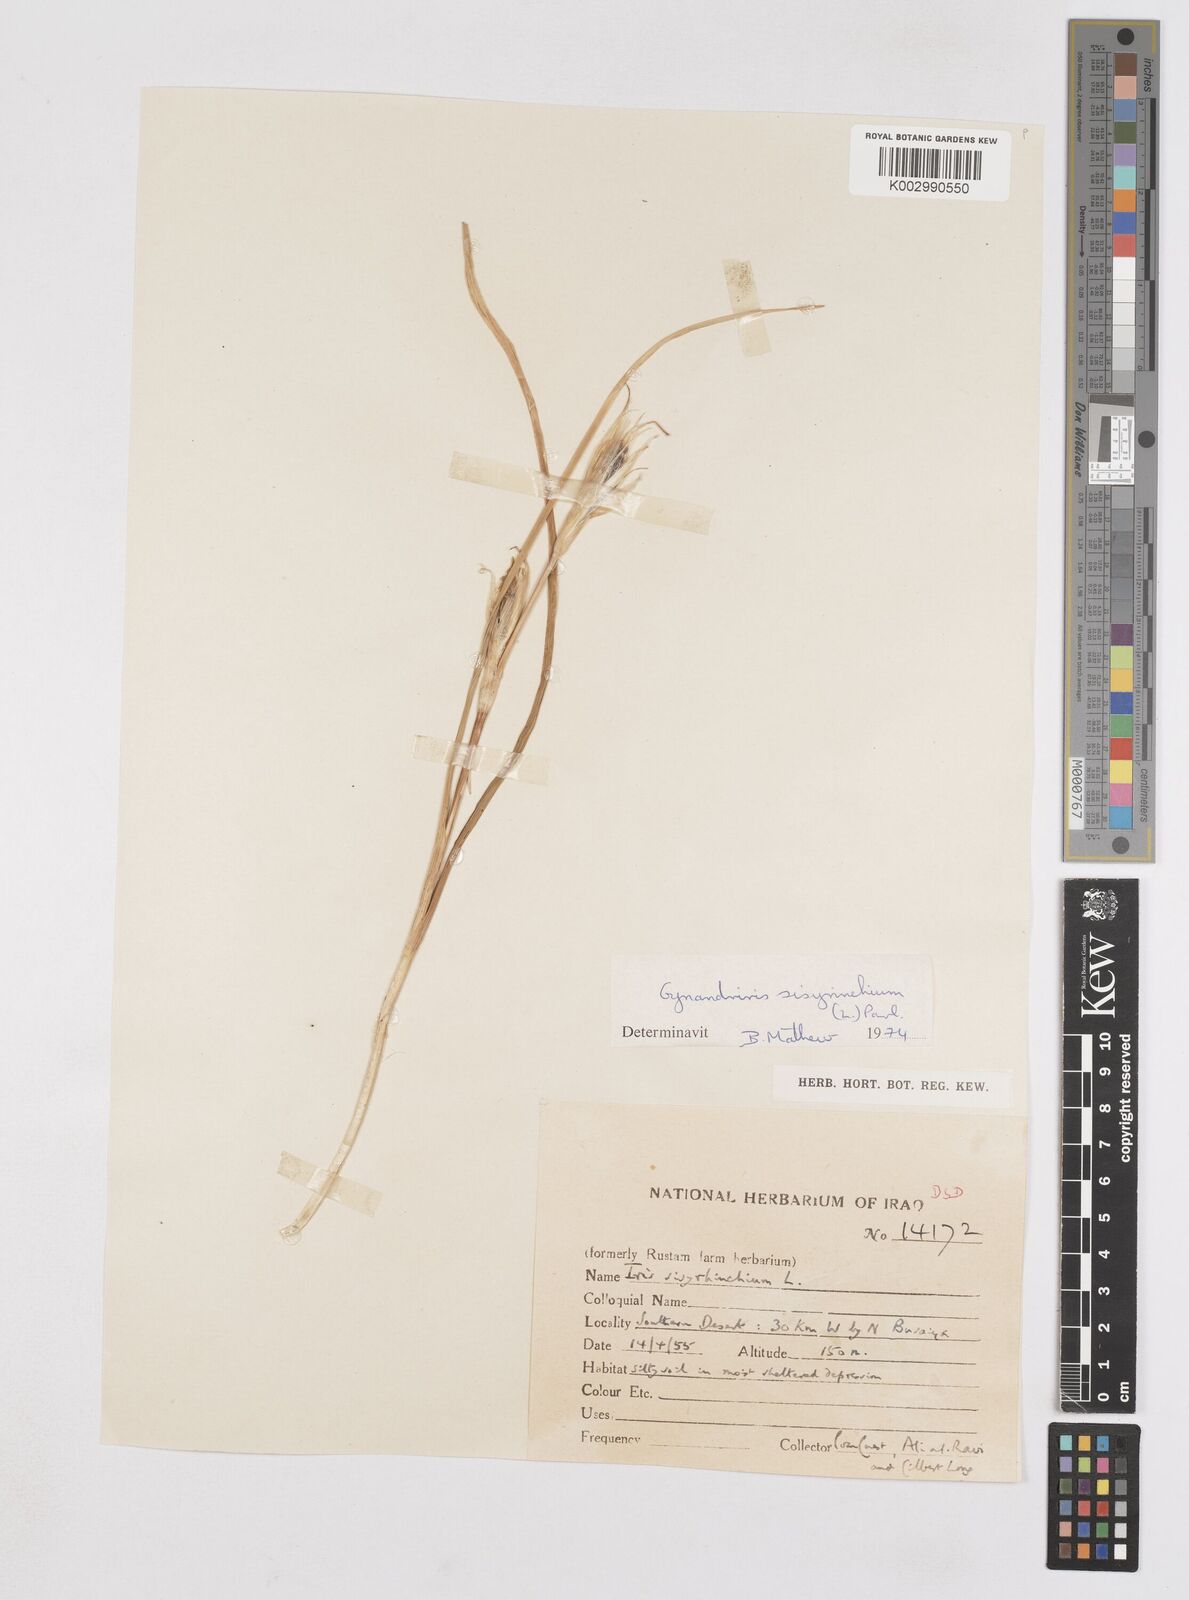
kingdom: Plantae
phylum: Tracheophyta
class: Liliopsida
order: Asparagales
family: Iridaceae
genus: Moraea
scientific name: Moraea sisyrinchium
